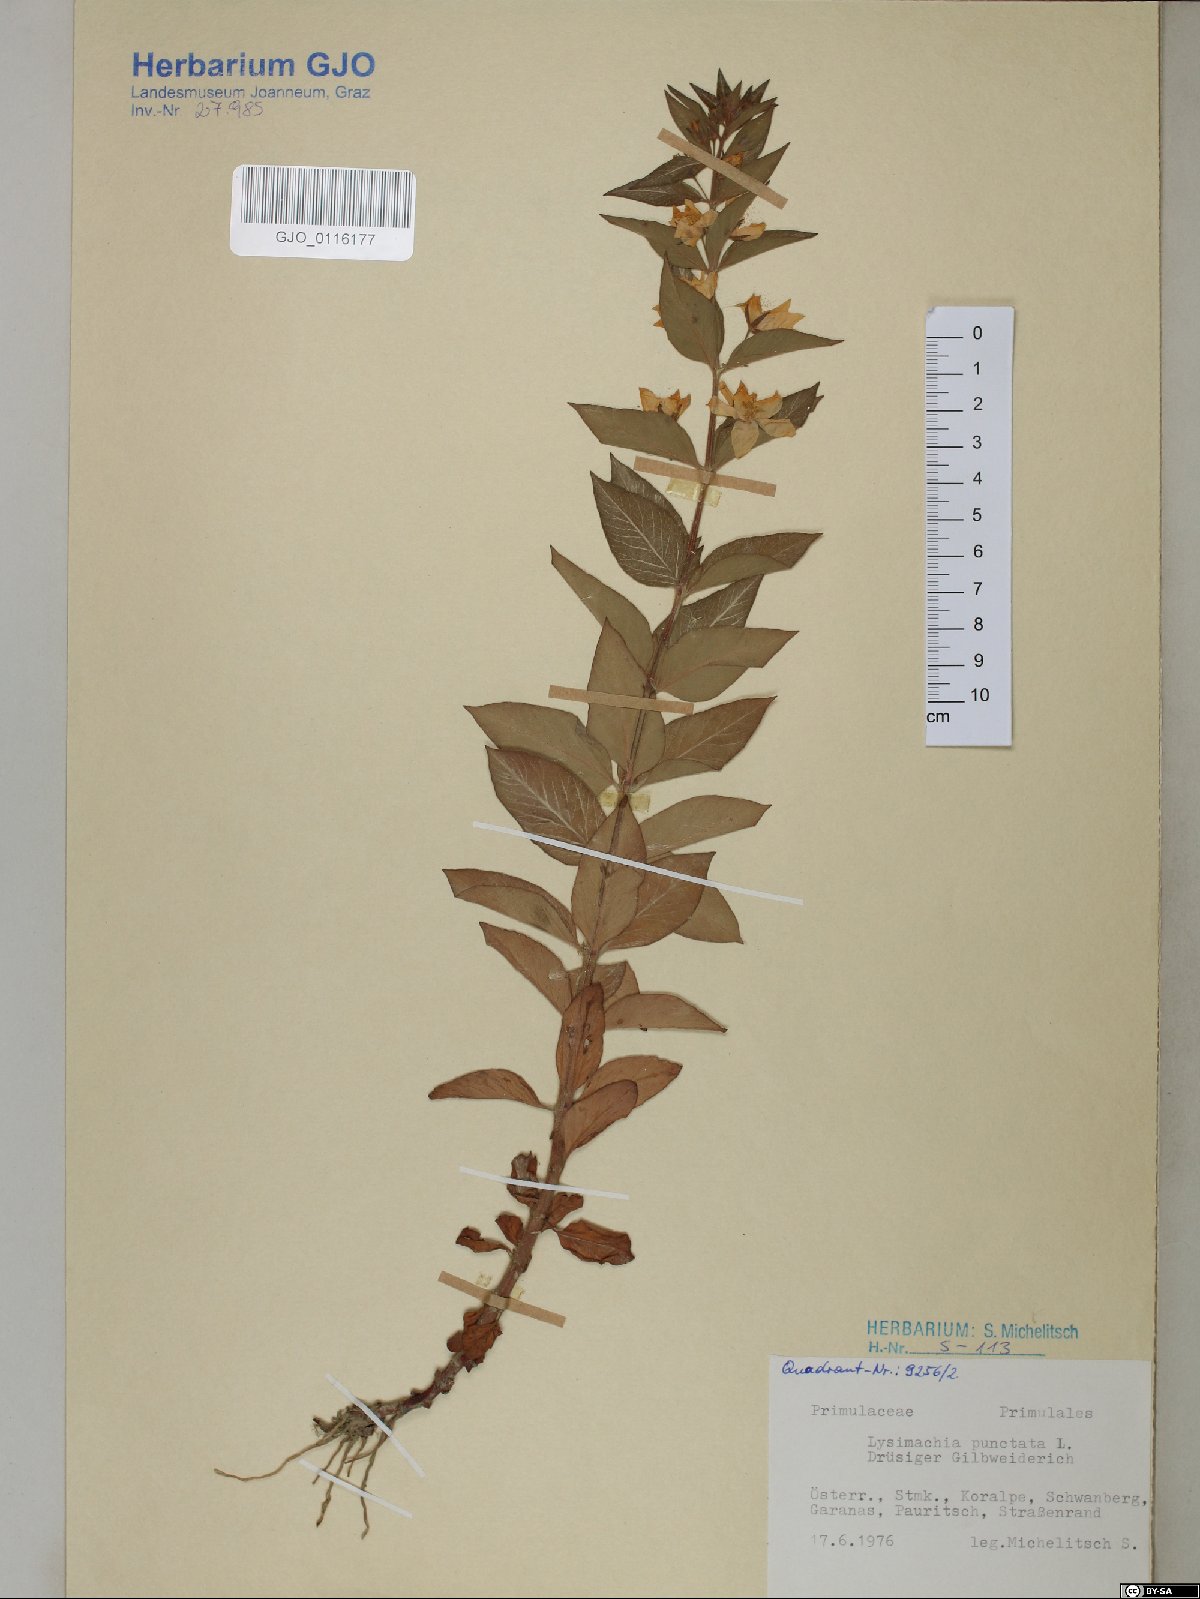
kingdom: Plantae
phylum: Tracheophyta
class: Magnoliopsida
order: Ericales
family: Primulaceae
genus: Lysimachia
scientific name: Lysimachia punctata
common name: Dotted loosestrife
